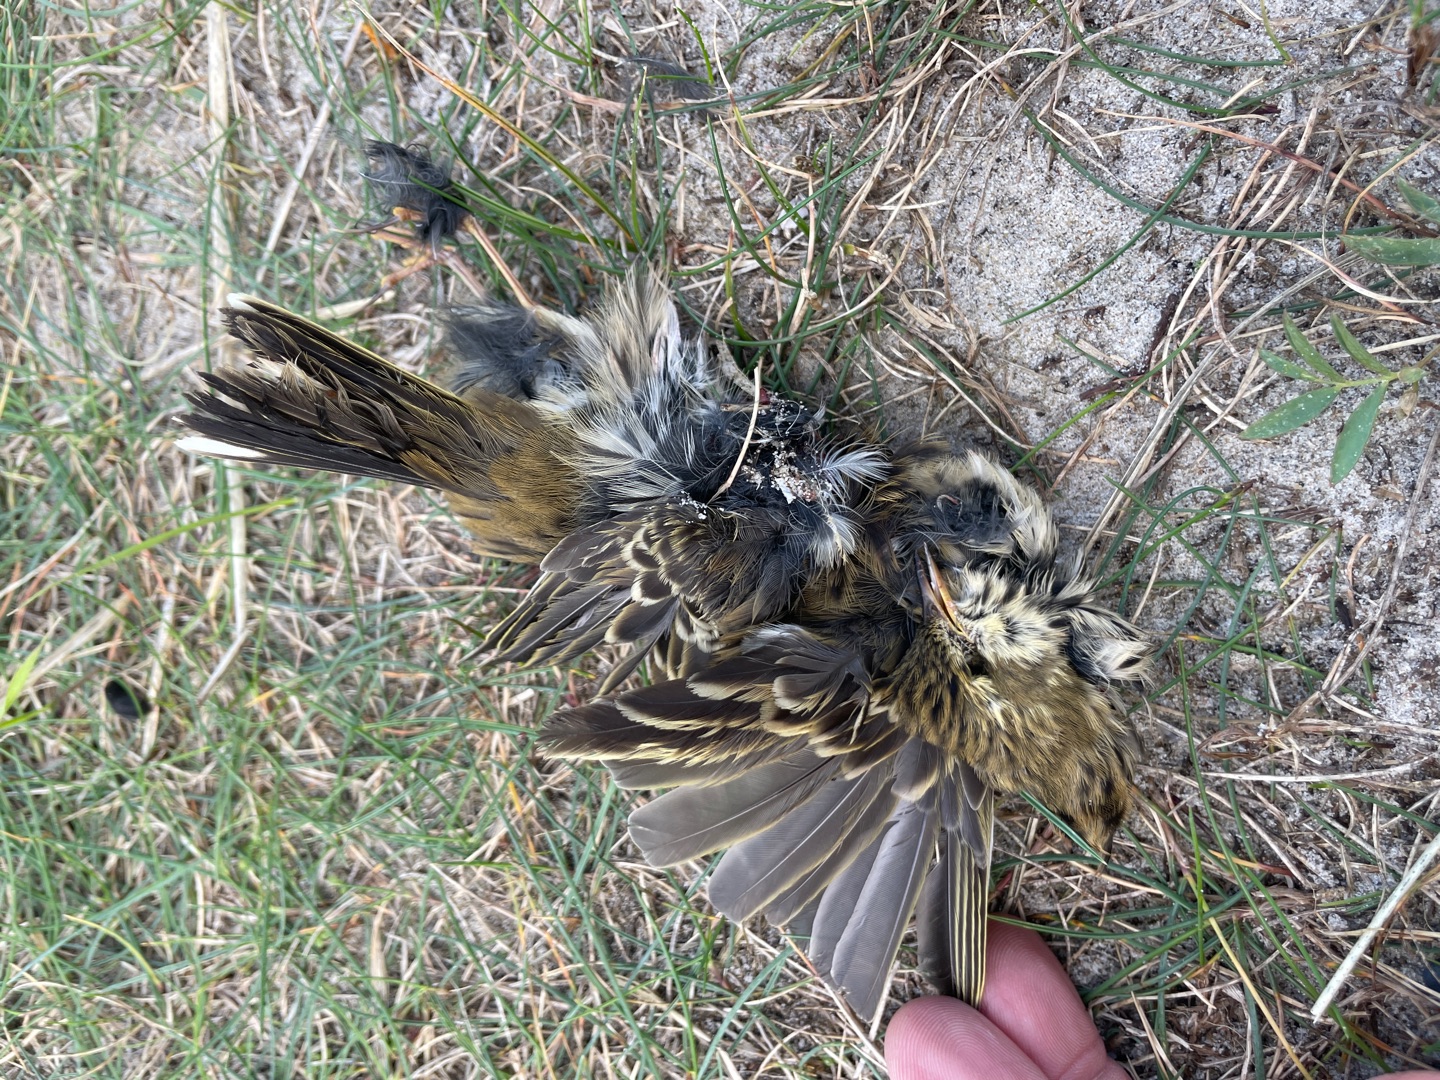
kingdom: Animalia
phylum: Chordata
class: Aves
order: Passeriformes
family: Motacillidae
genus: Anthus
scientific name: Anthus pratensis
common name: Engpiber
